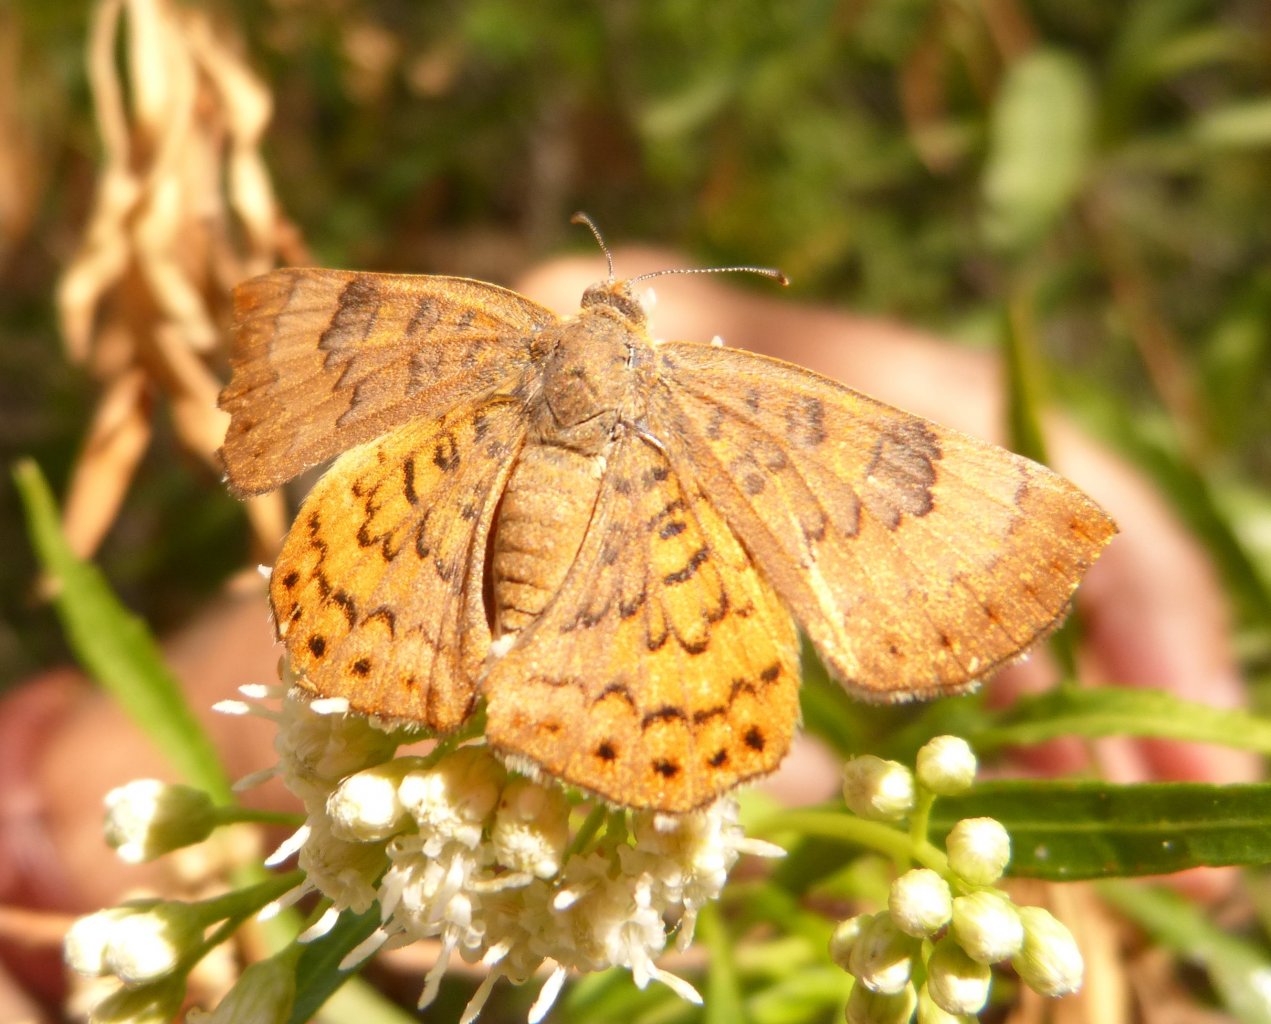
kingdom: Animalia
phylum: Arthropoda
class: Insecta
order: Lepidoptera
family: Lycaenidae
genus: Emesis
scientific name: Emesis zela
